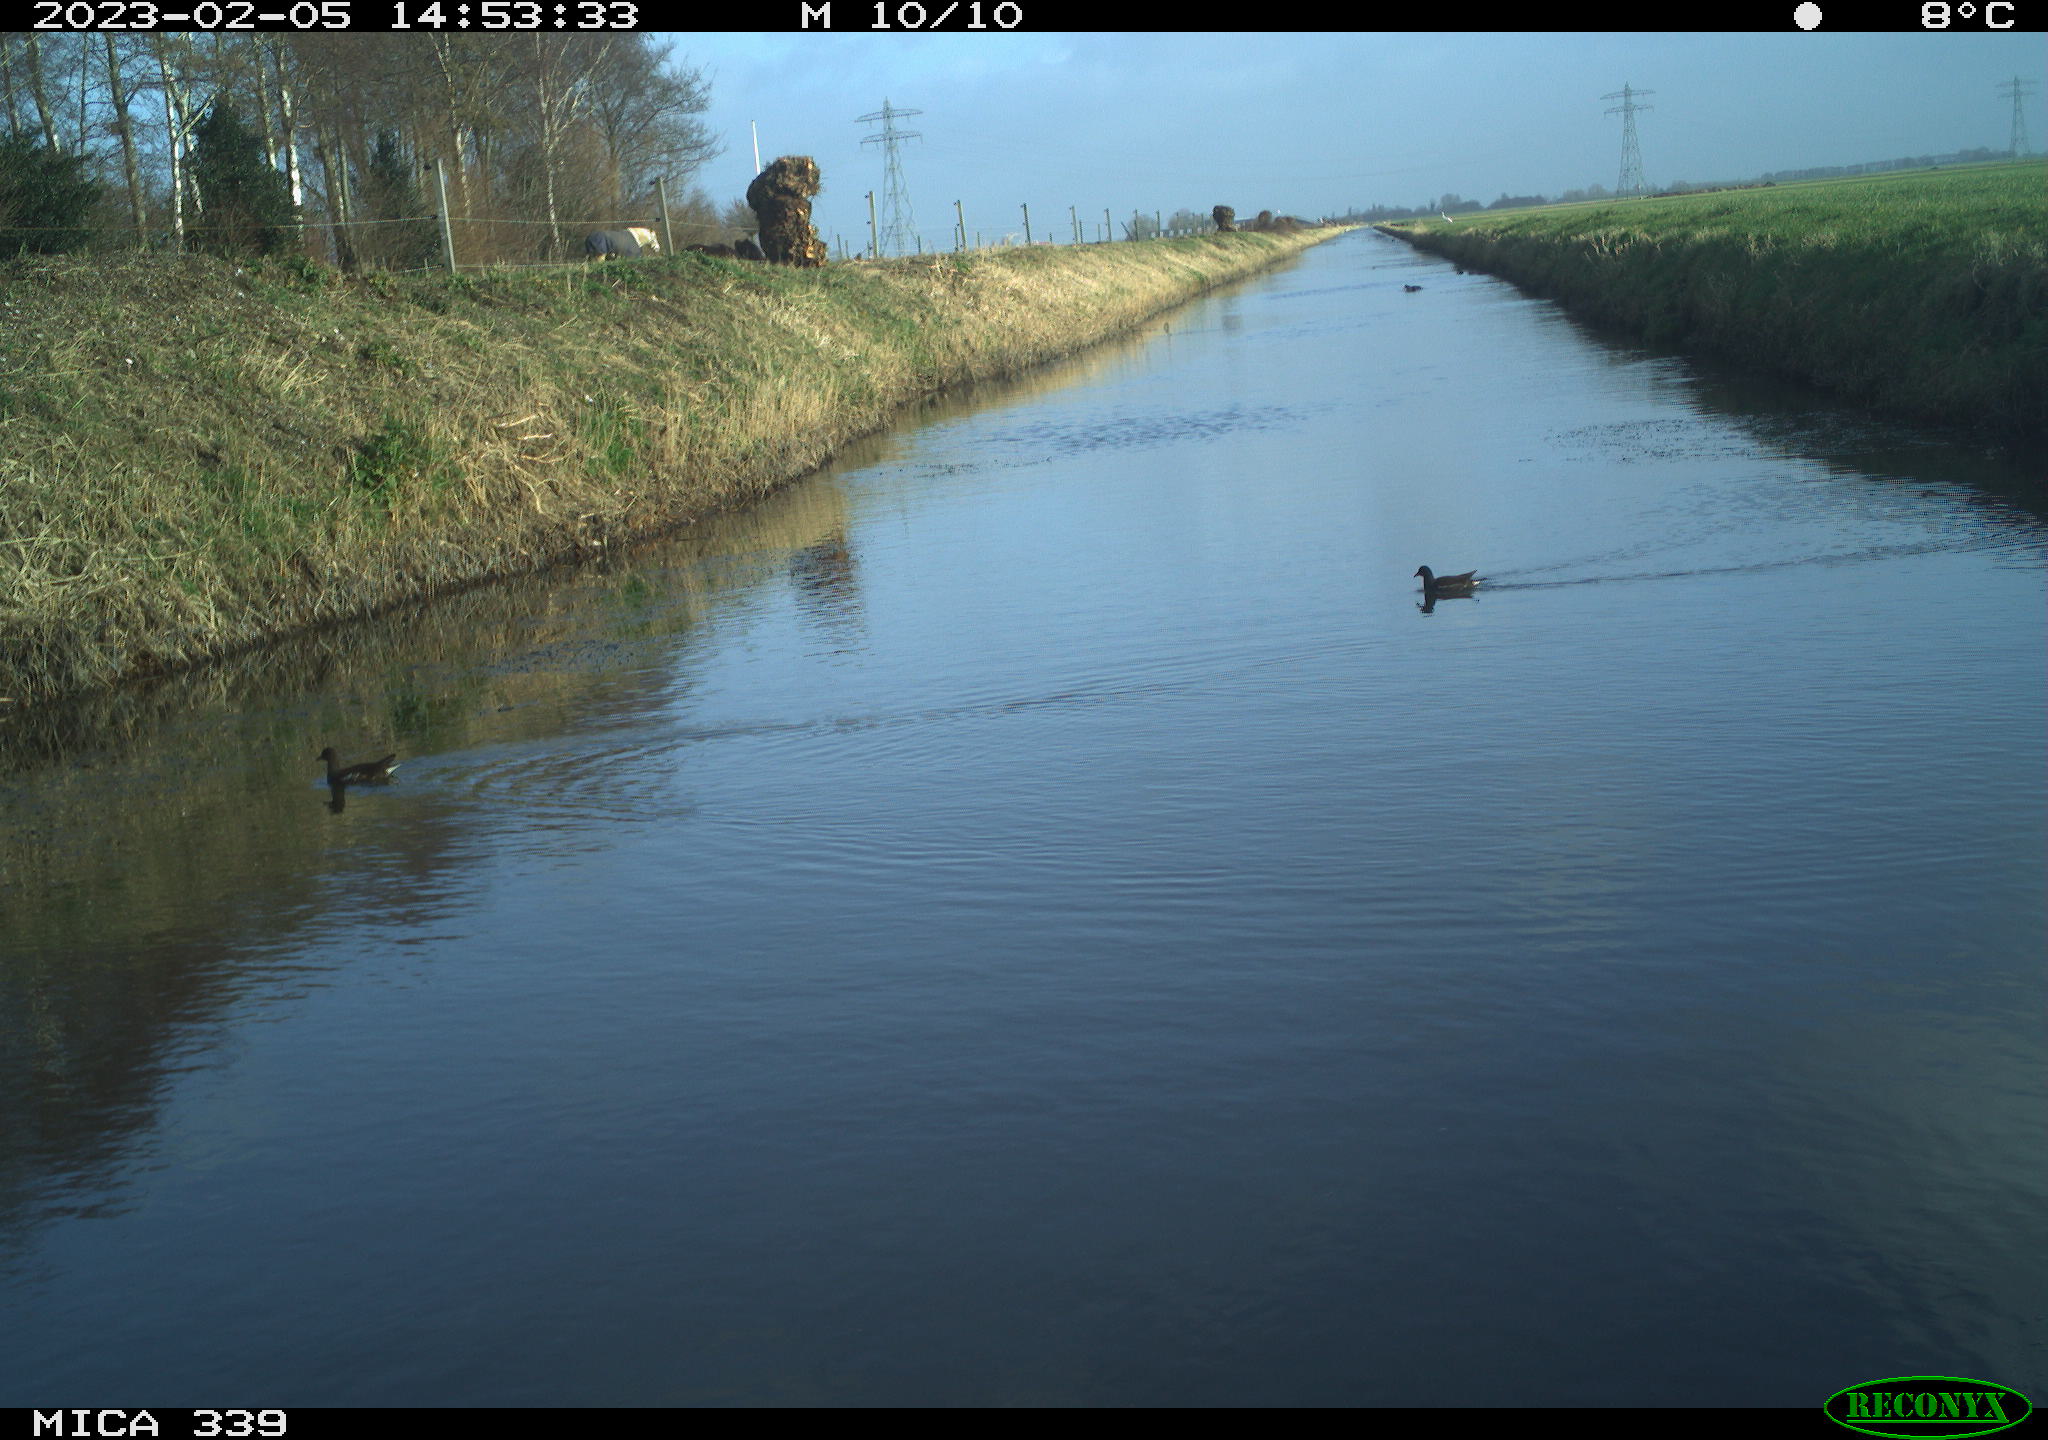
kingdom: Animalia
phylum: Chordata
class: Aves
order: Gruiformes
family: Rallidae
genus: Gallinula
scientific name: Gallinula chloropus
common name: Common moorhen
